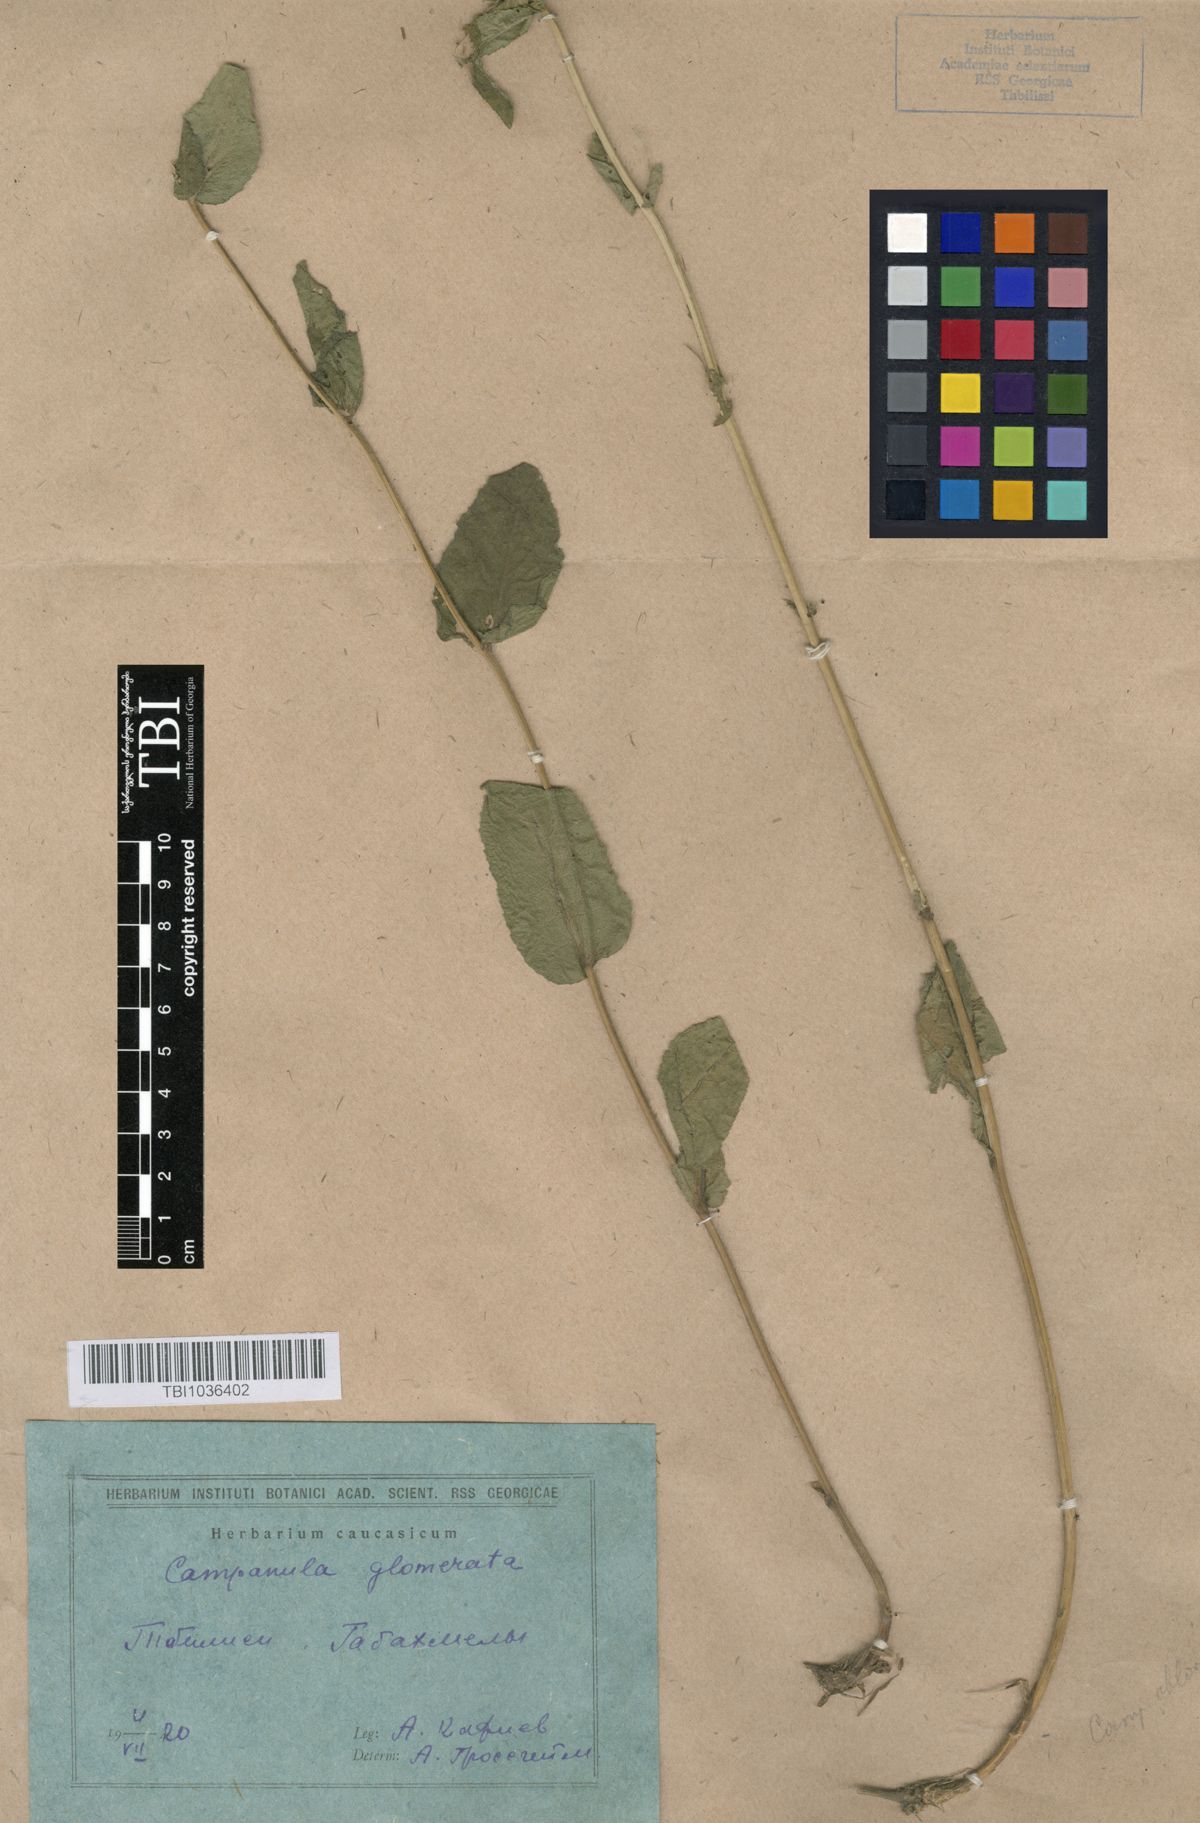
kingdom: Plantae
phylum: Tracheophyta
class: Magnoliopsida
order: Asterales
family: Campanulaceae
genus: Campanula
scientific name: Campanula glomerata
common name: Clustered bellflower
